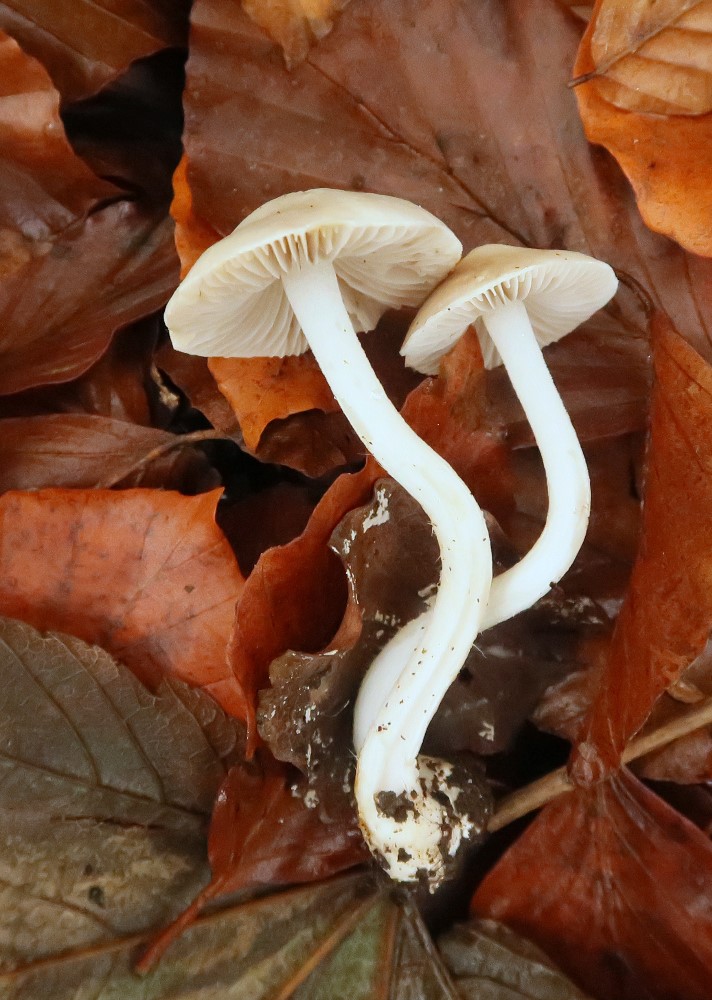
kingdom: Fungi
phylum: Basidiomycota
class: Agaricomycetes
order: Agaricales
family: Inocybaceae
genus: Inocybe
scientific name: Inocybe
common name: almindelig trævlhat
